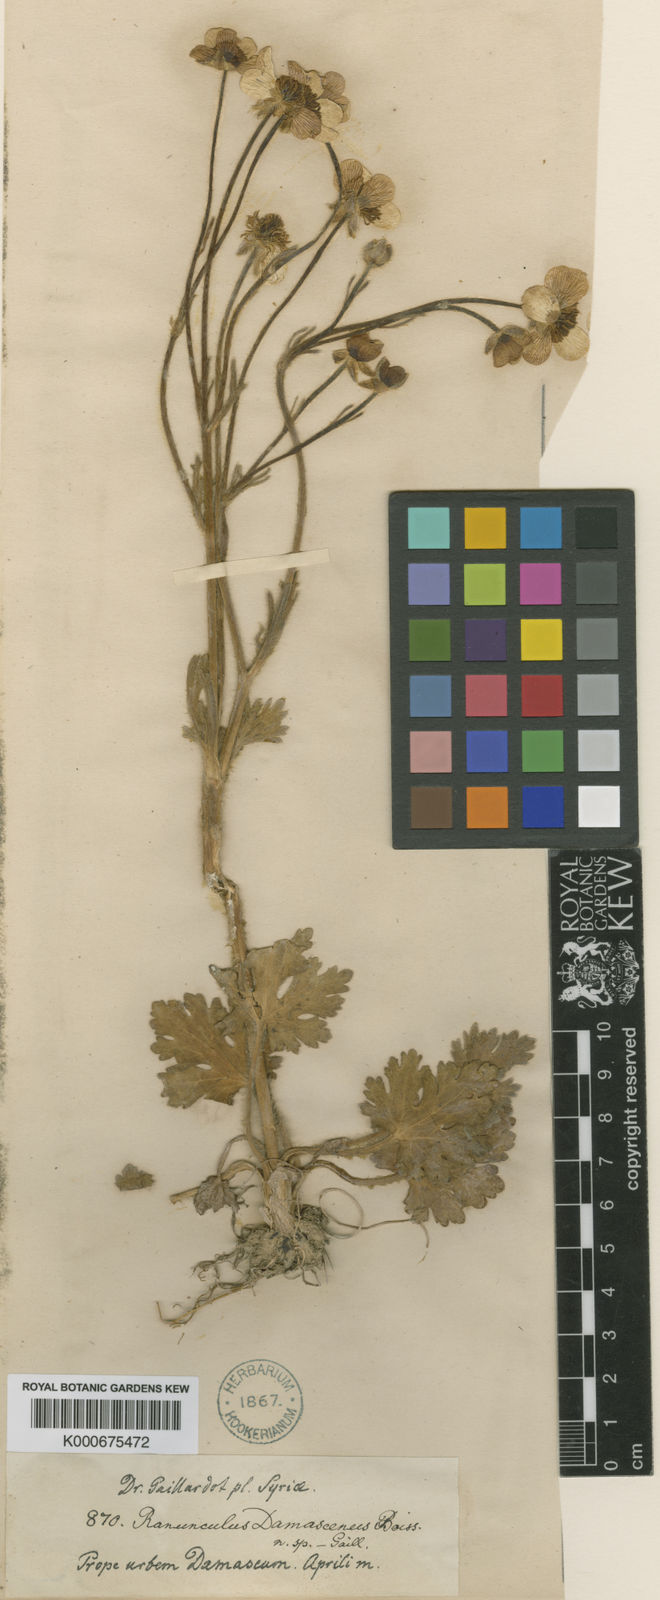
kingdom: Plantae
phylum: Tracheophyta
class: Magnoliopsida
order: Ranunculales
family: Ranunculaceae
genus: Ranunculus
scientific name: Ranunculus damascenus
